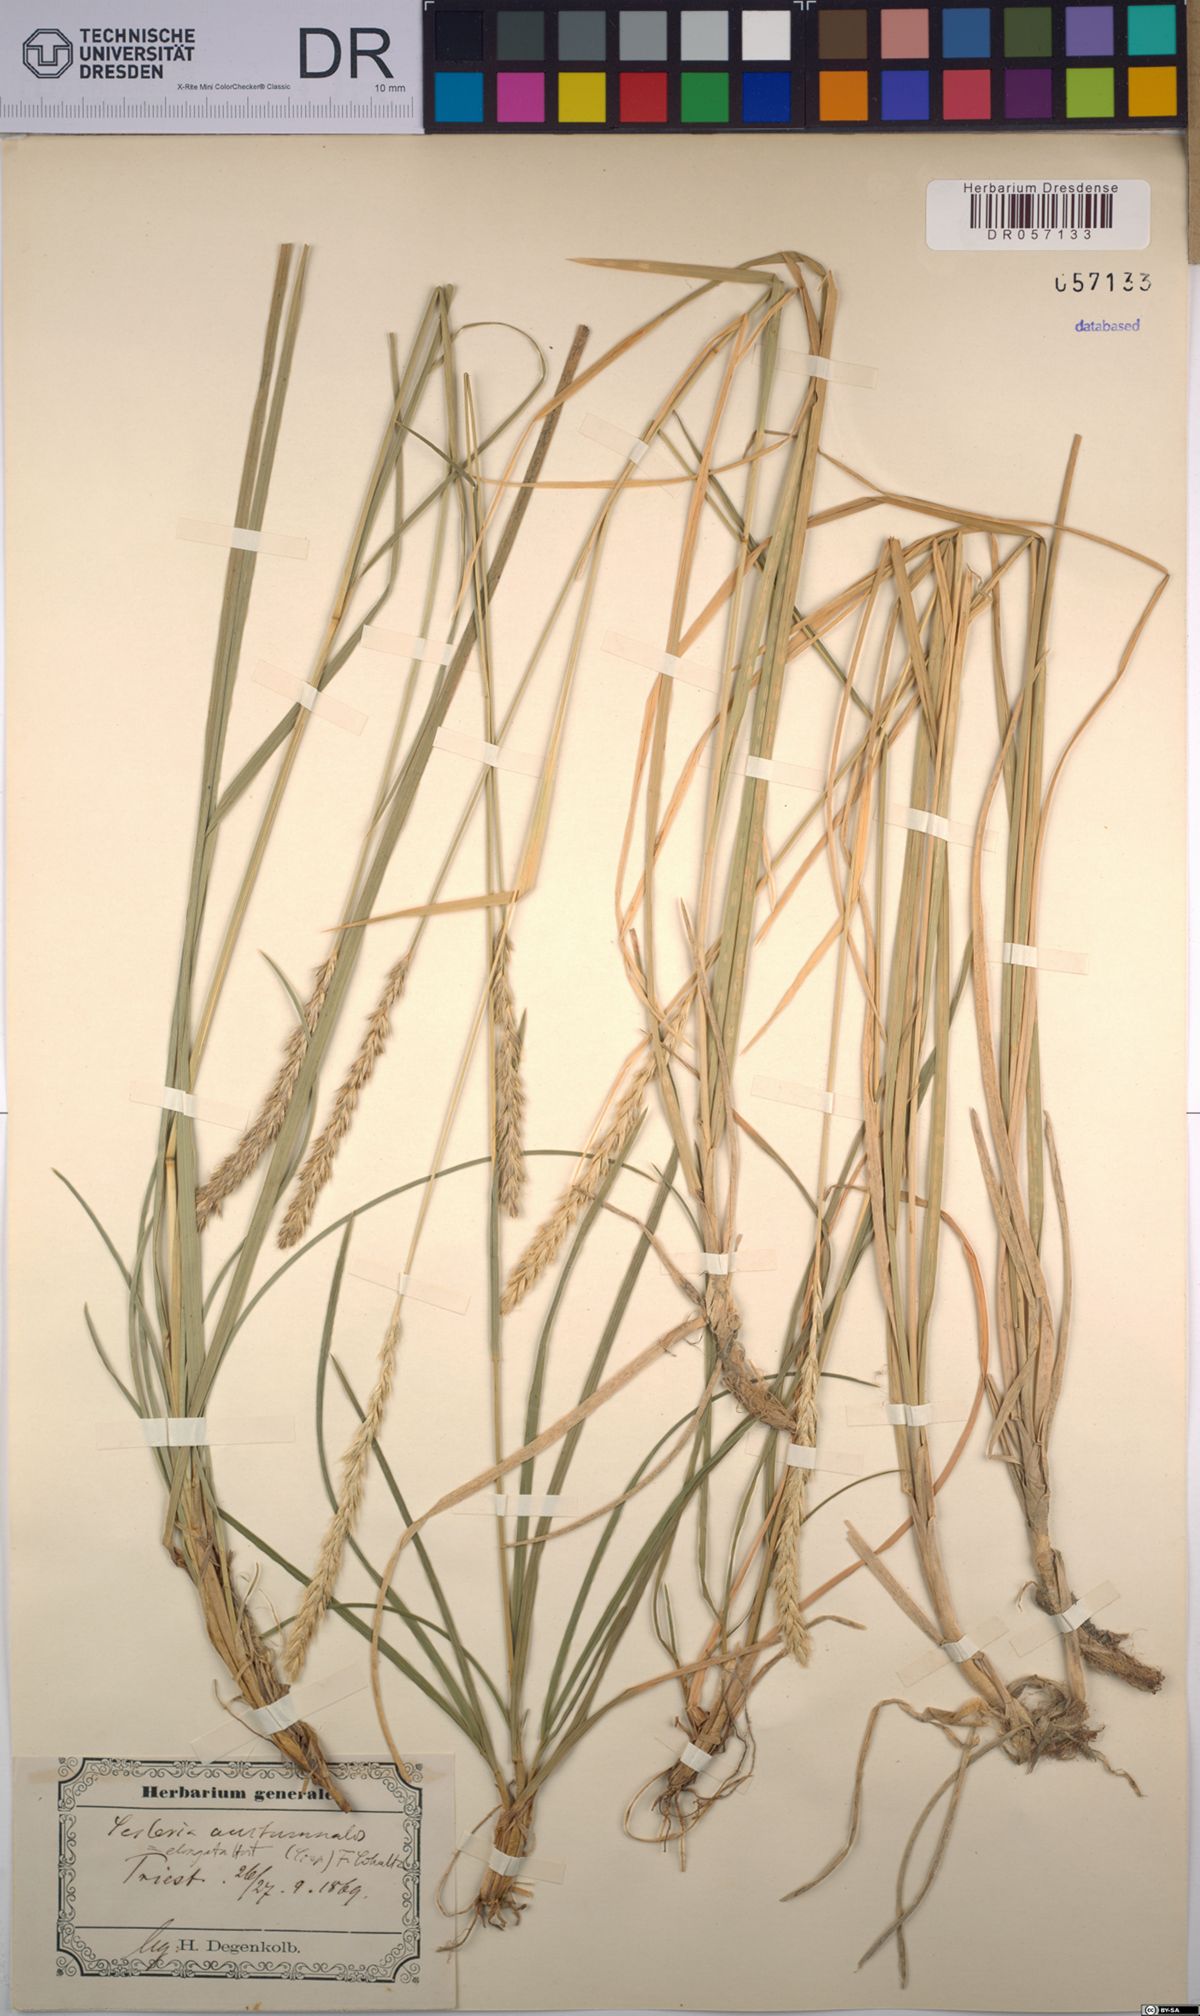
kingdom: Plantae
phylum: Tracheophyta
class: Liliopsida
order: Poales
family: Poaceae
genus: Sesleria
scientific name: Sesleria autumnalis
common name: Autumn moor grass
